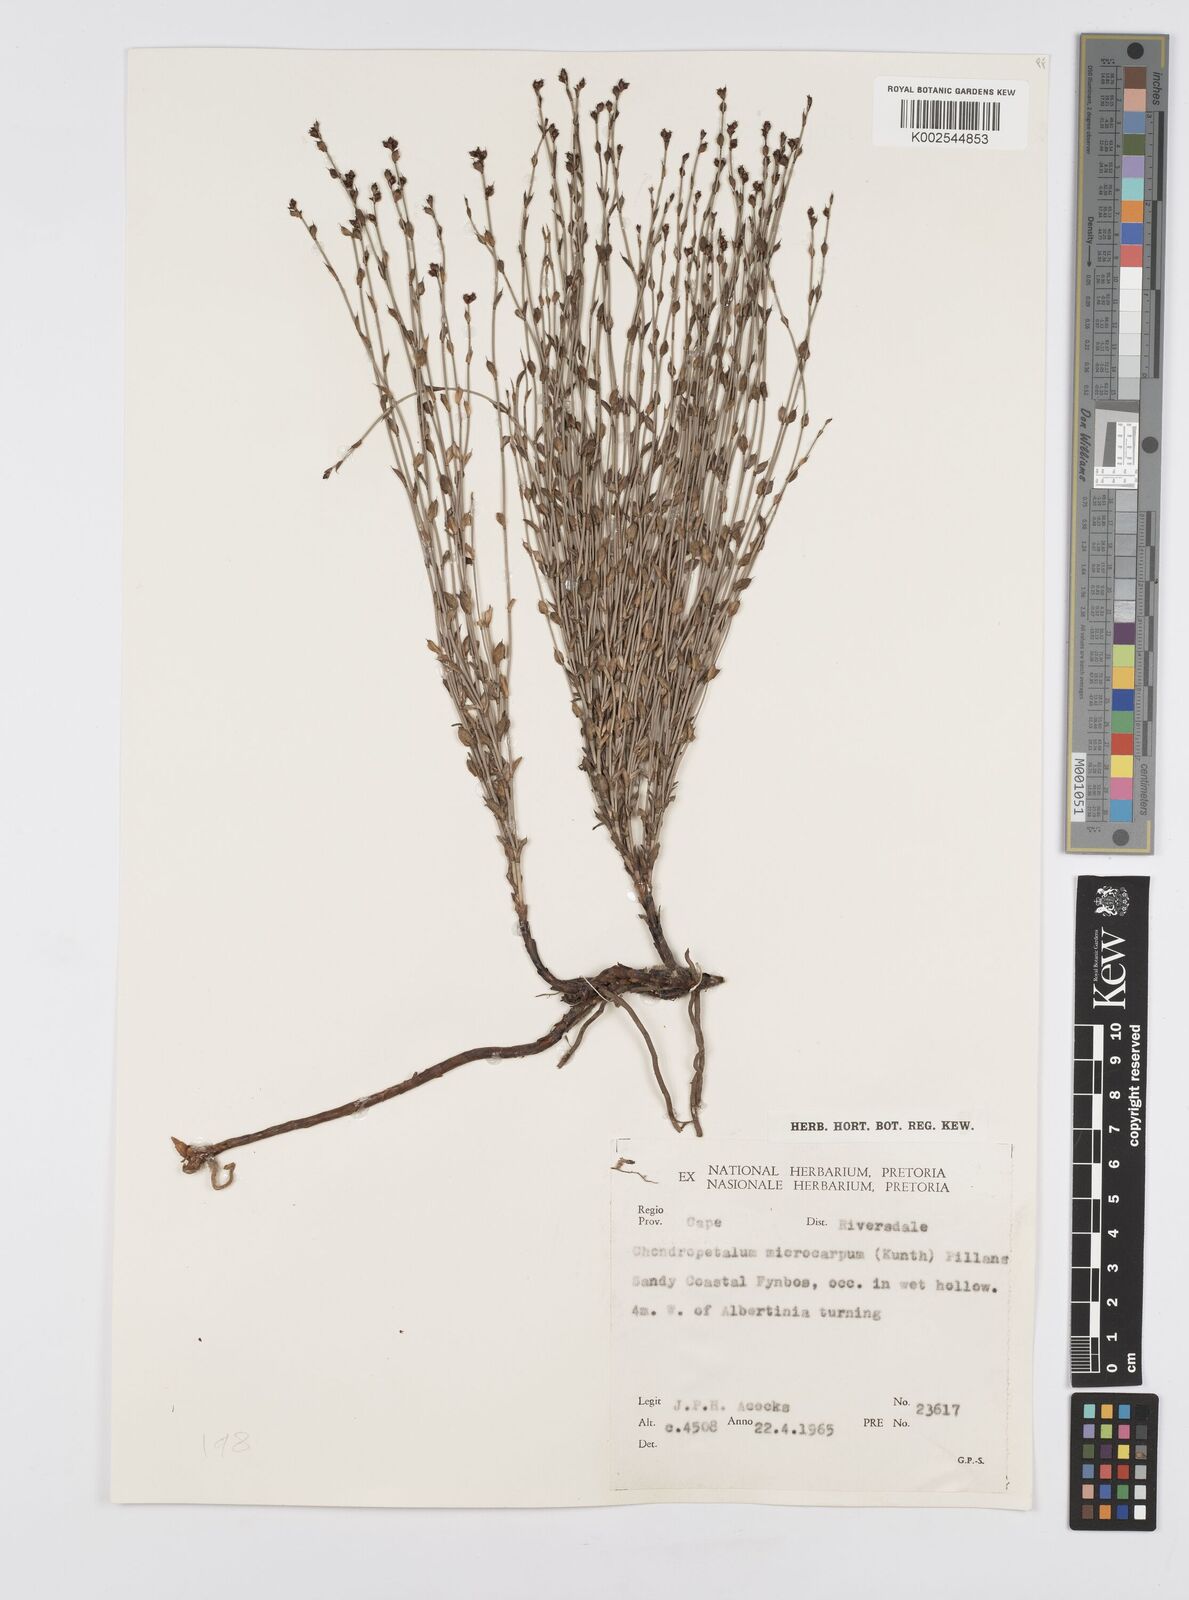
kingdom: Plantae
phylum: Tracheophyta
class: Liliopsida
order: Poales
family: Restionaceae
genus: Elegia
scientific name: Elegia microcarpa
